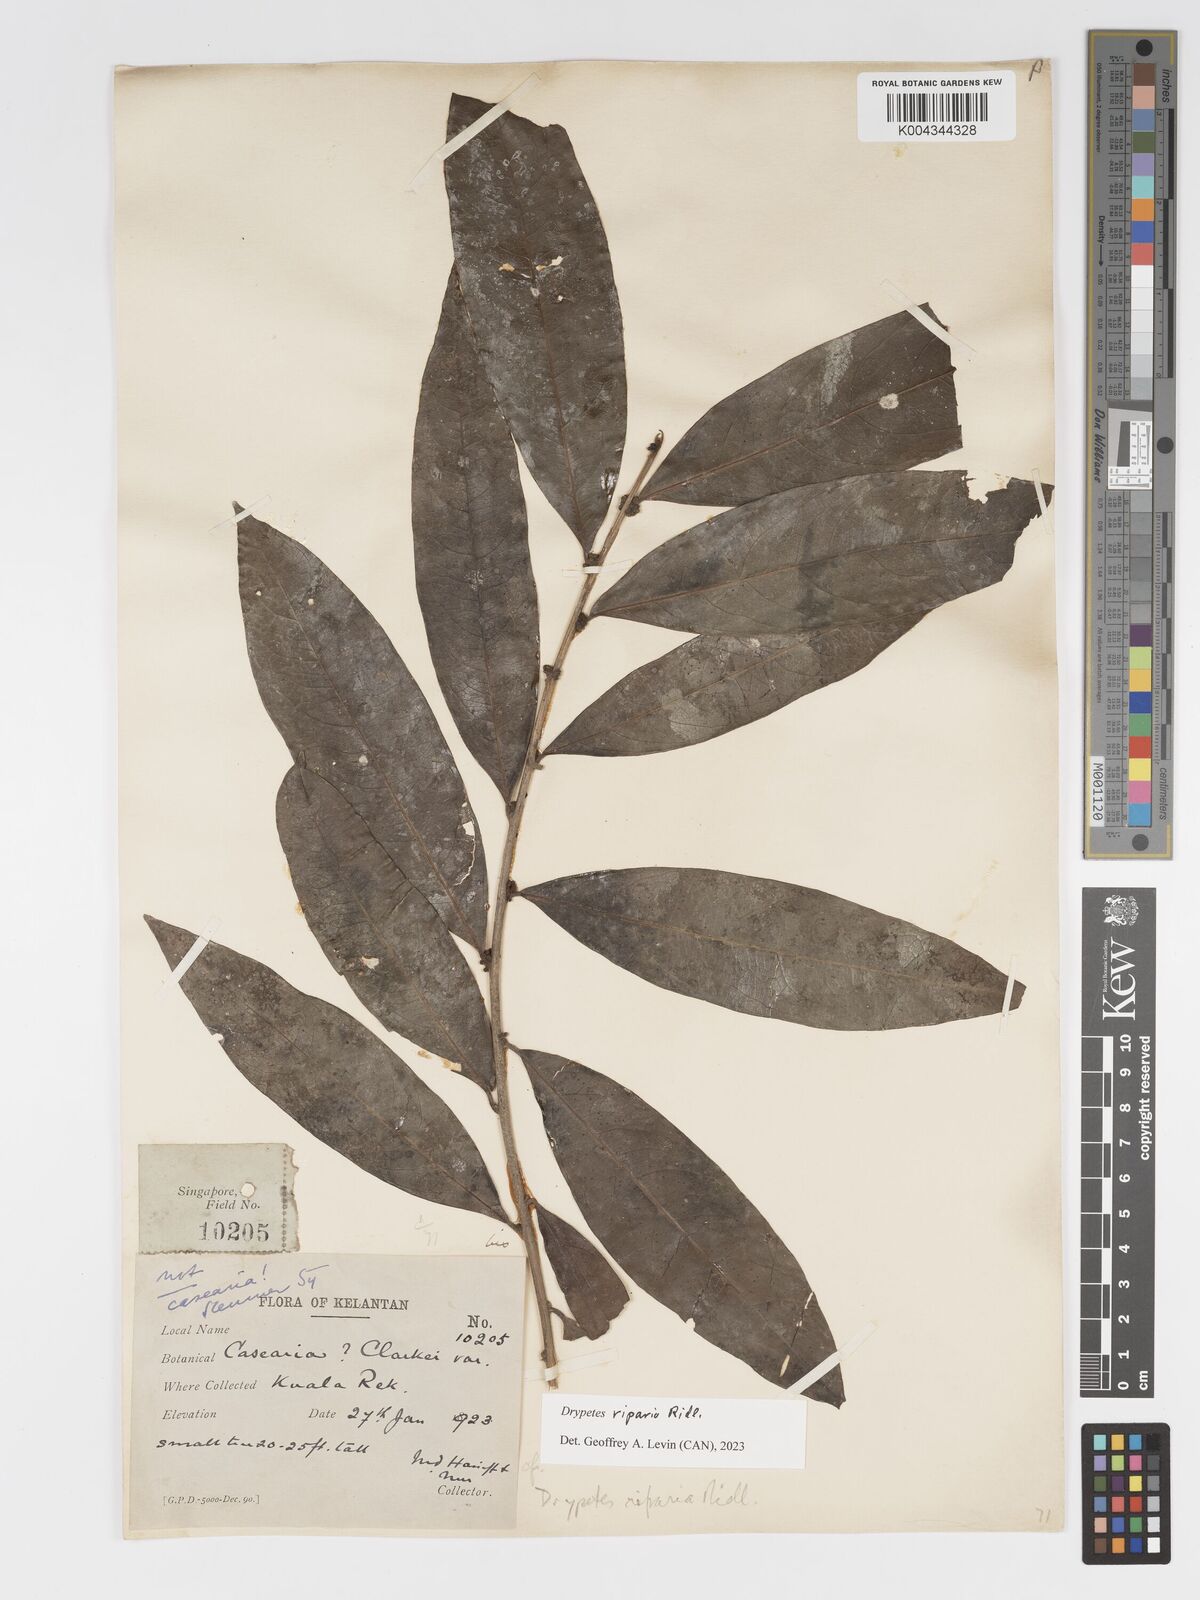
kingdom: Plantae
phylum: Tracheophyta
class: Magnoliopsida
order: Malpighiales
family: Putranjivaceae
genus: Drypetes
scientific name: Drypetes riparia
